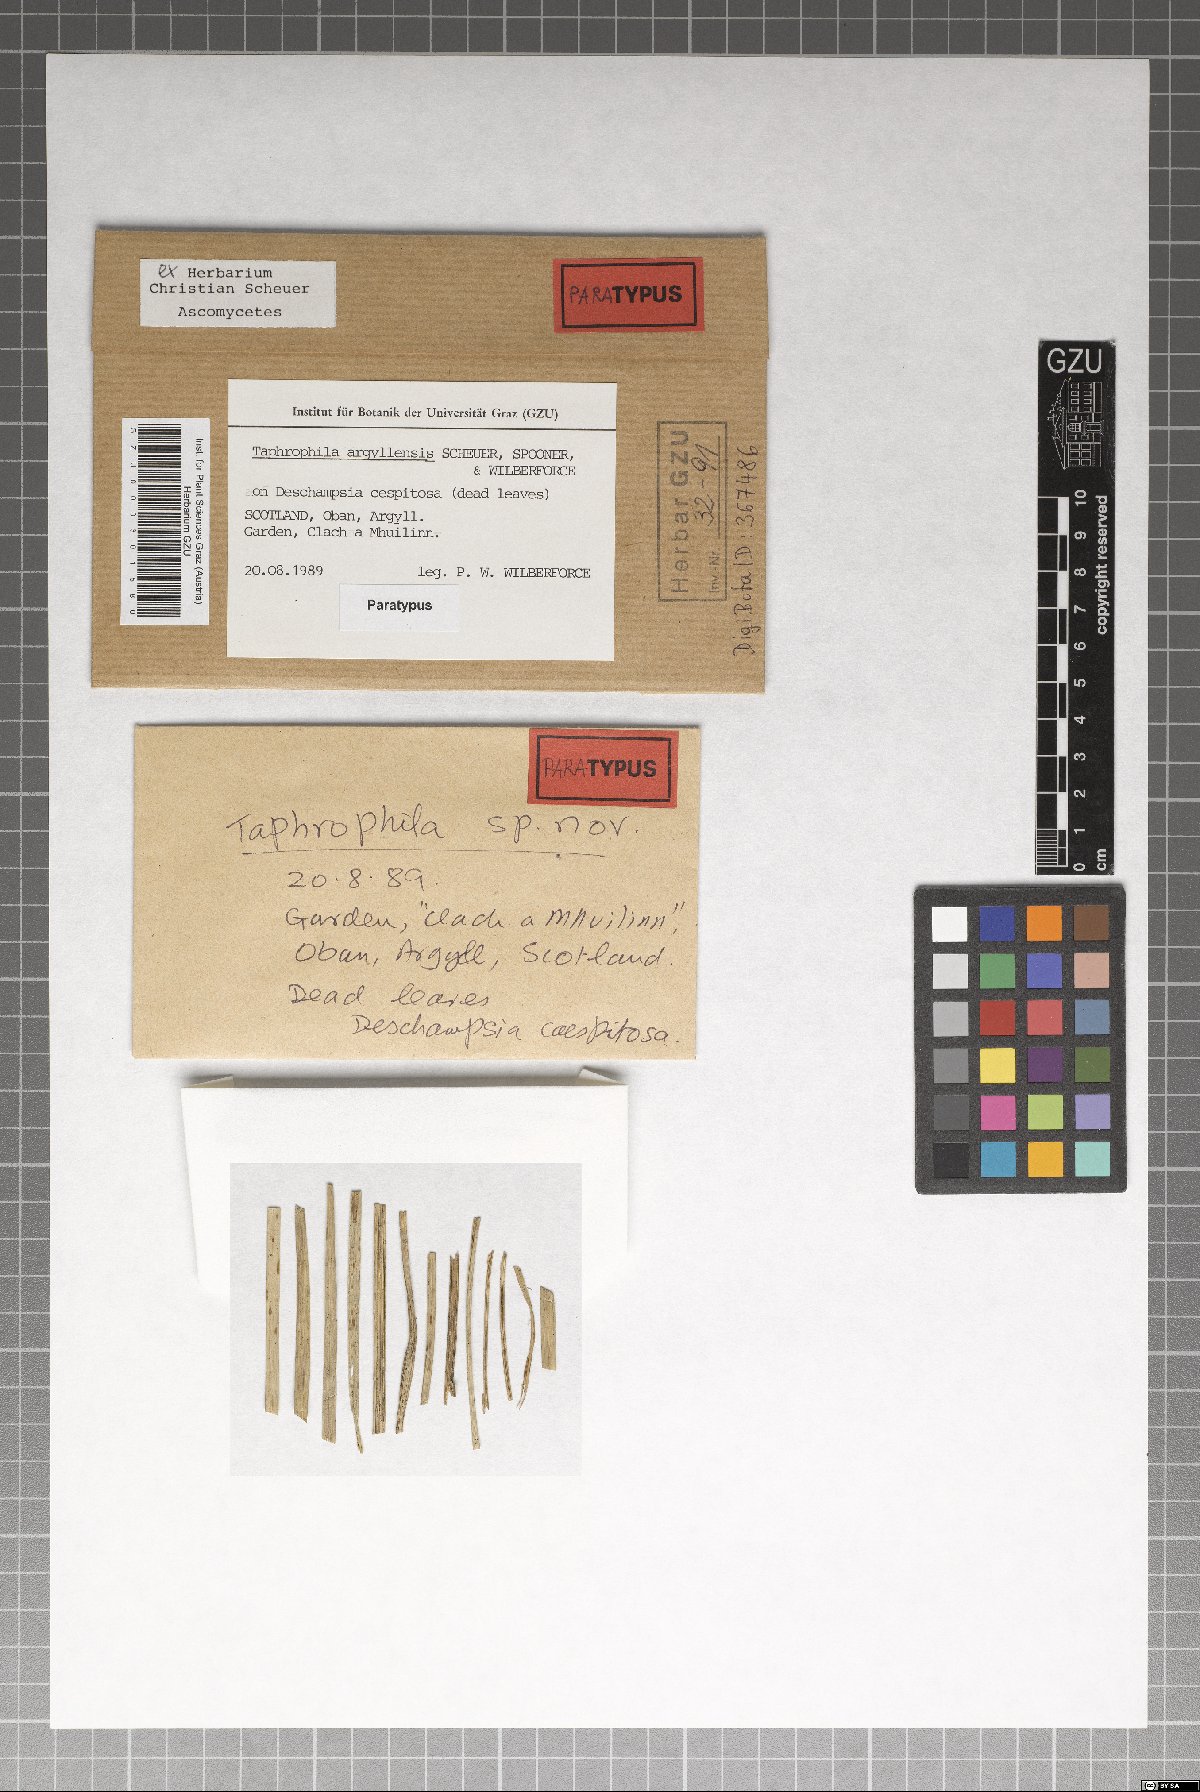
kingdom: Fungi
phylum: Ascomycota
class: Dothideomycetes
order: Tubeufiales
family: Tubeufiaceae
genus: Taphrophila
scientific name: Taphrophila argyllensis
